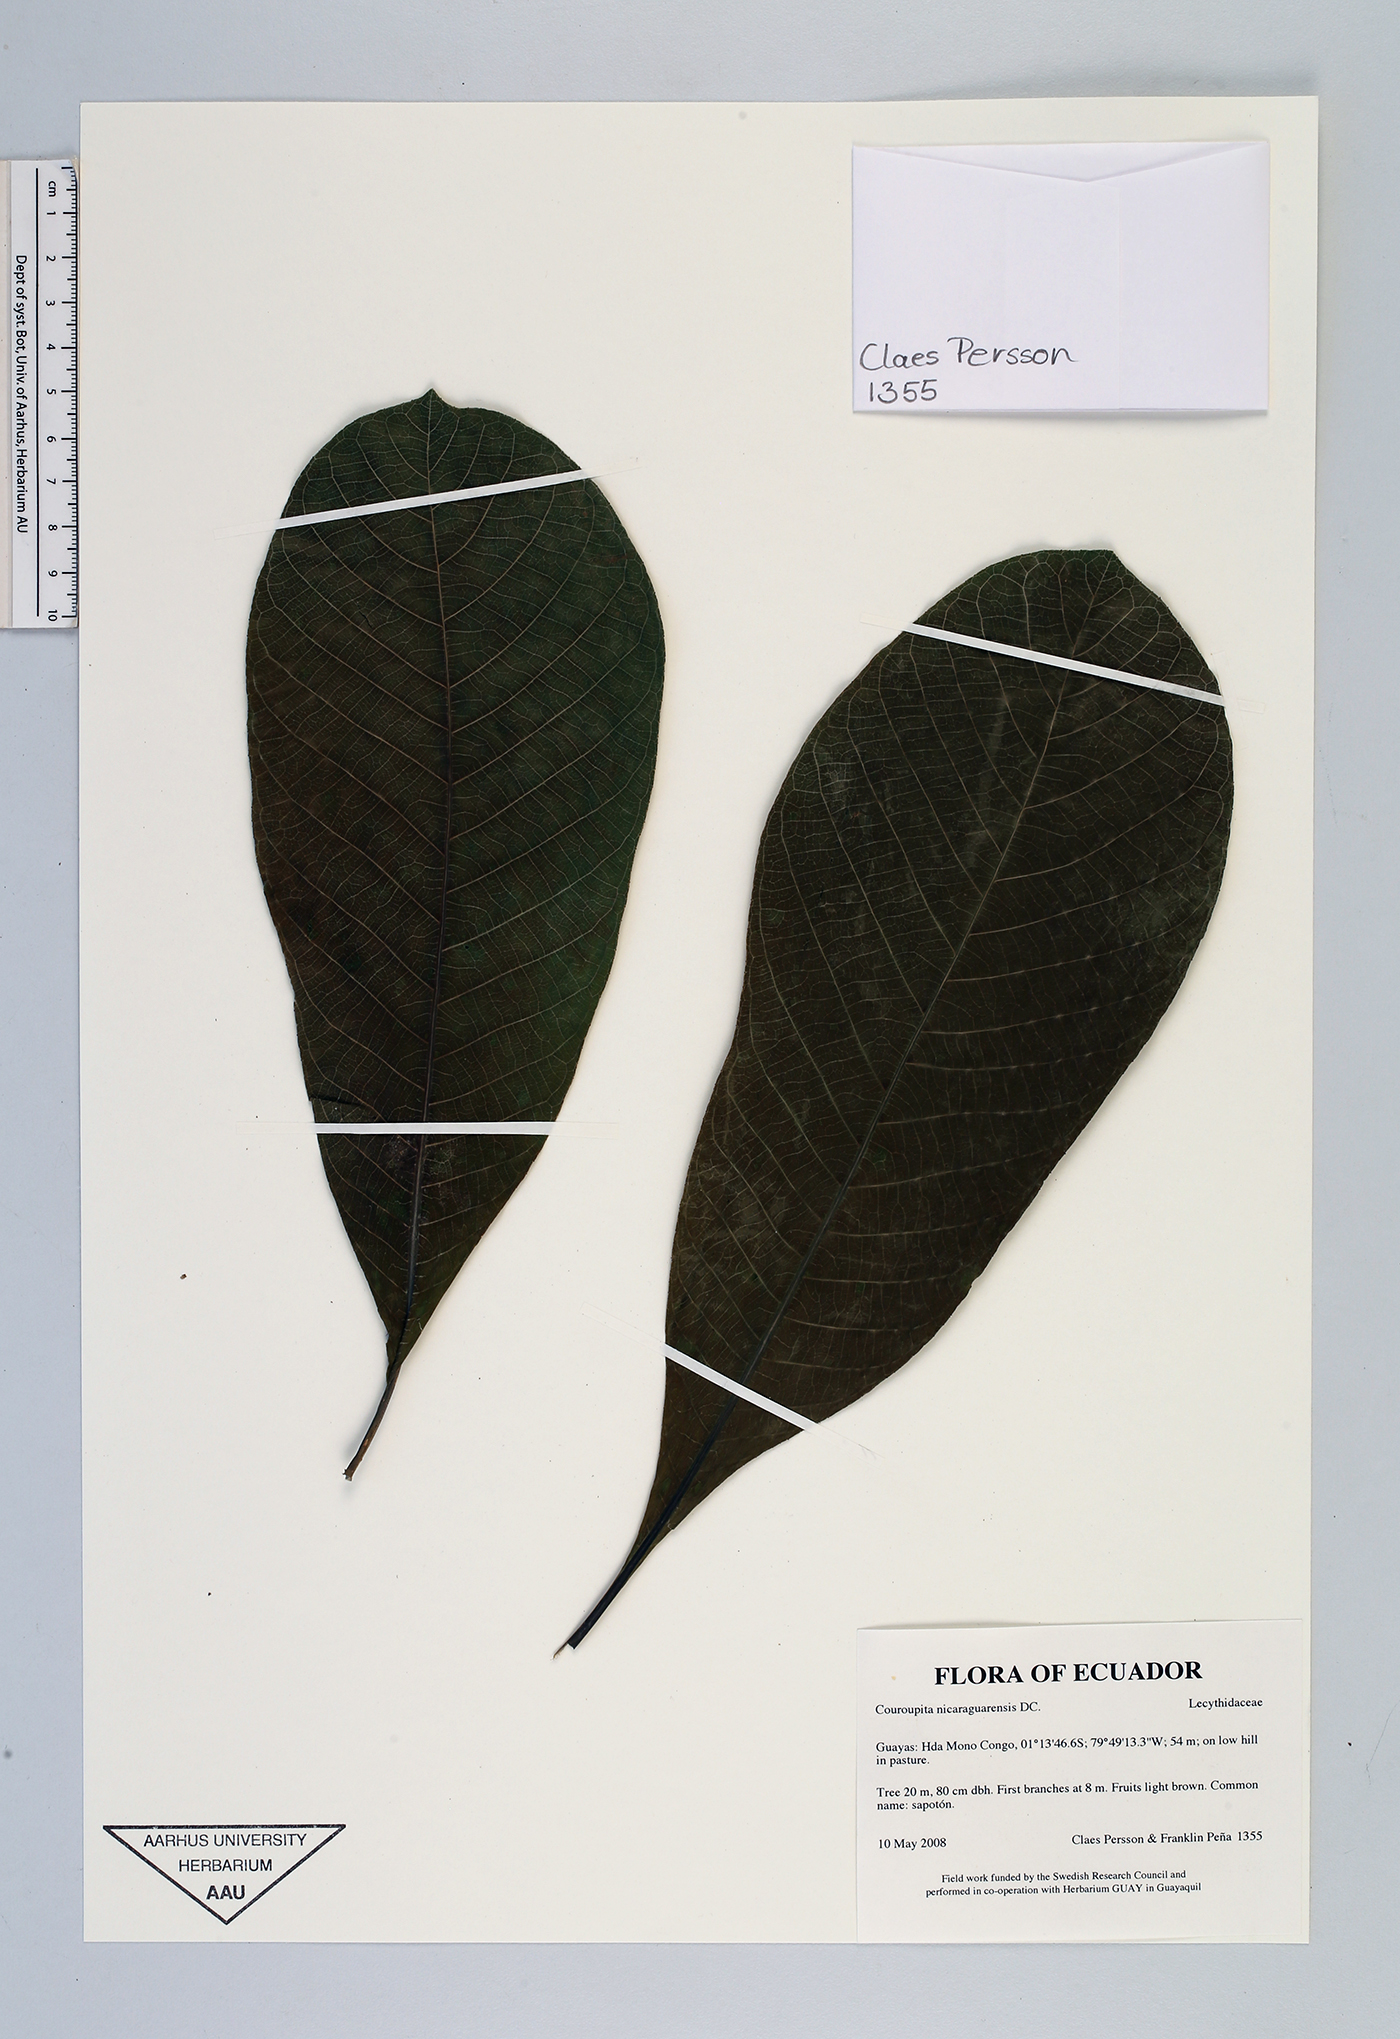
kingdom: Plantae
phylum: Tracheophyta
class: Magnoliopsida
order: Ericales
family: Lecythidaceae
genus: Couroupita
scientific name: Couroupita nicaraguarensis
